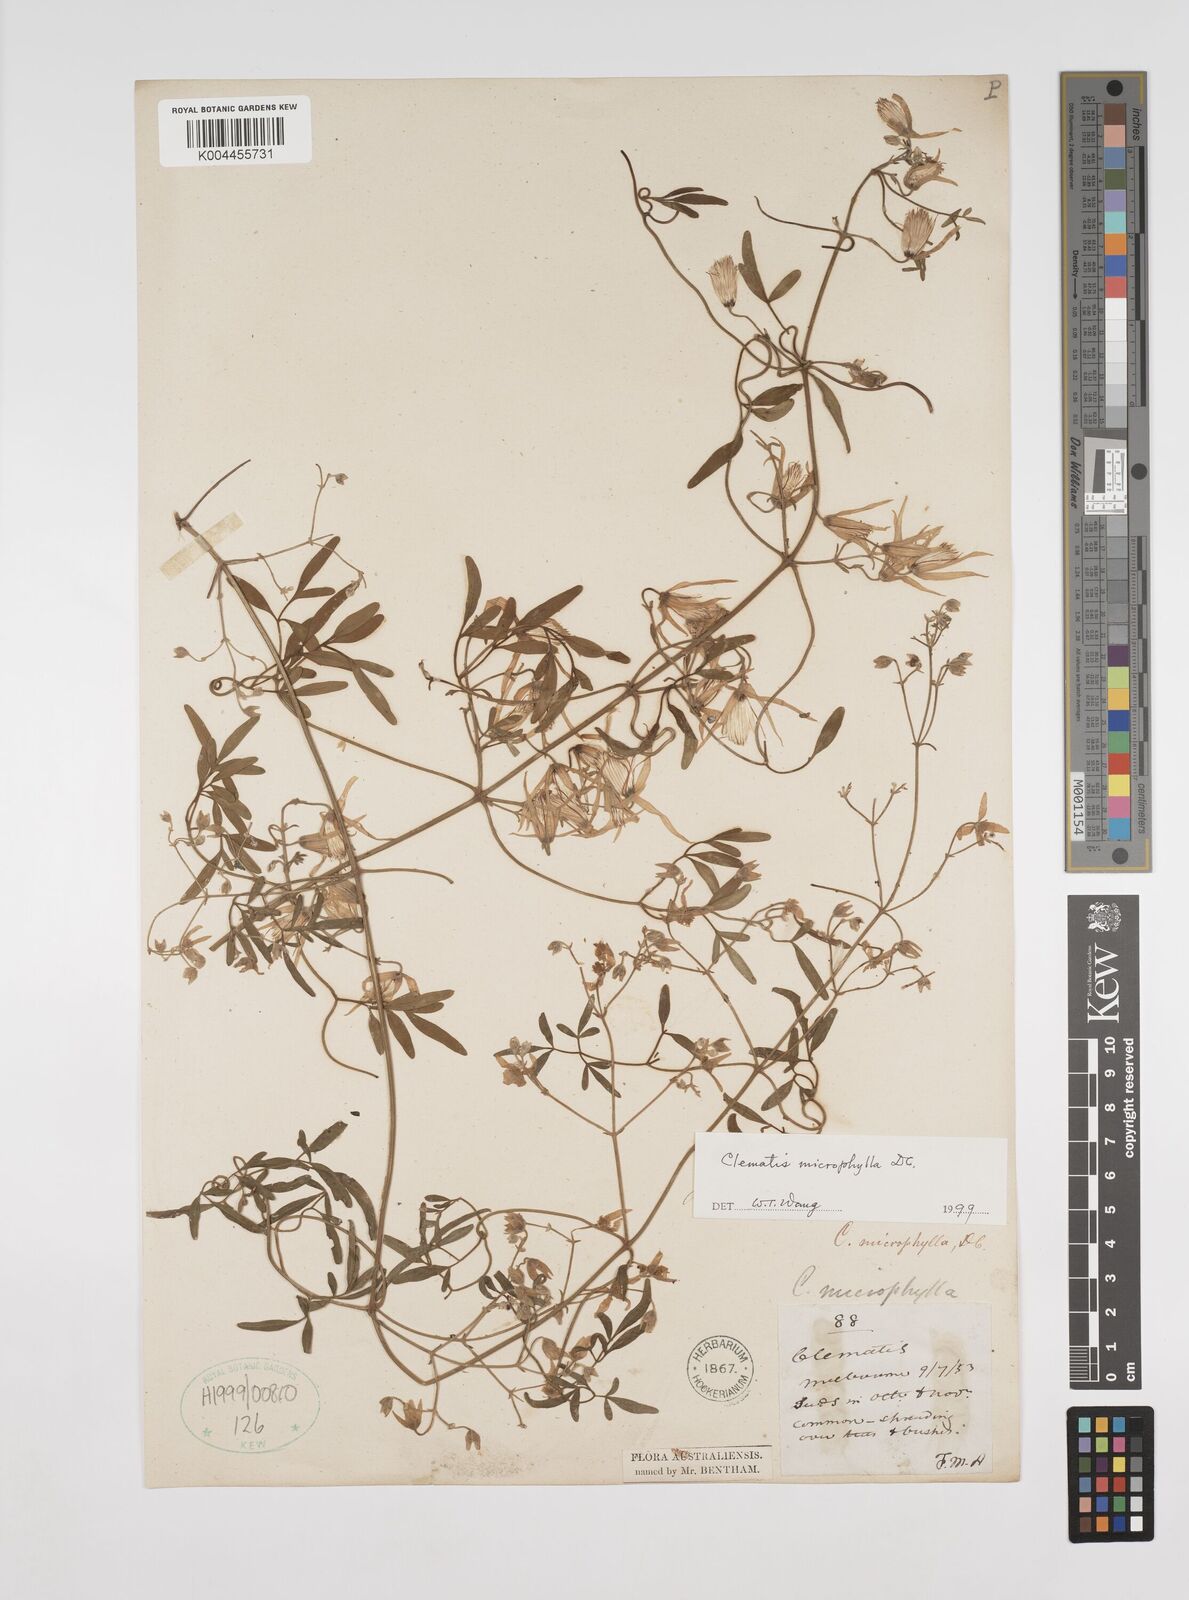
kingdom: Plantae
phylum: Tracheophyta
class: Magnoliopsida
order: Ranunculales
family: Ranunculaceae
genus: Clematis
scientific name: Clematis microphylla
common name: Headachevine
